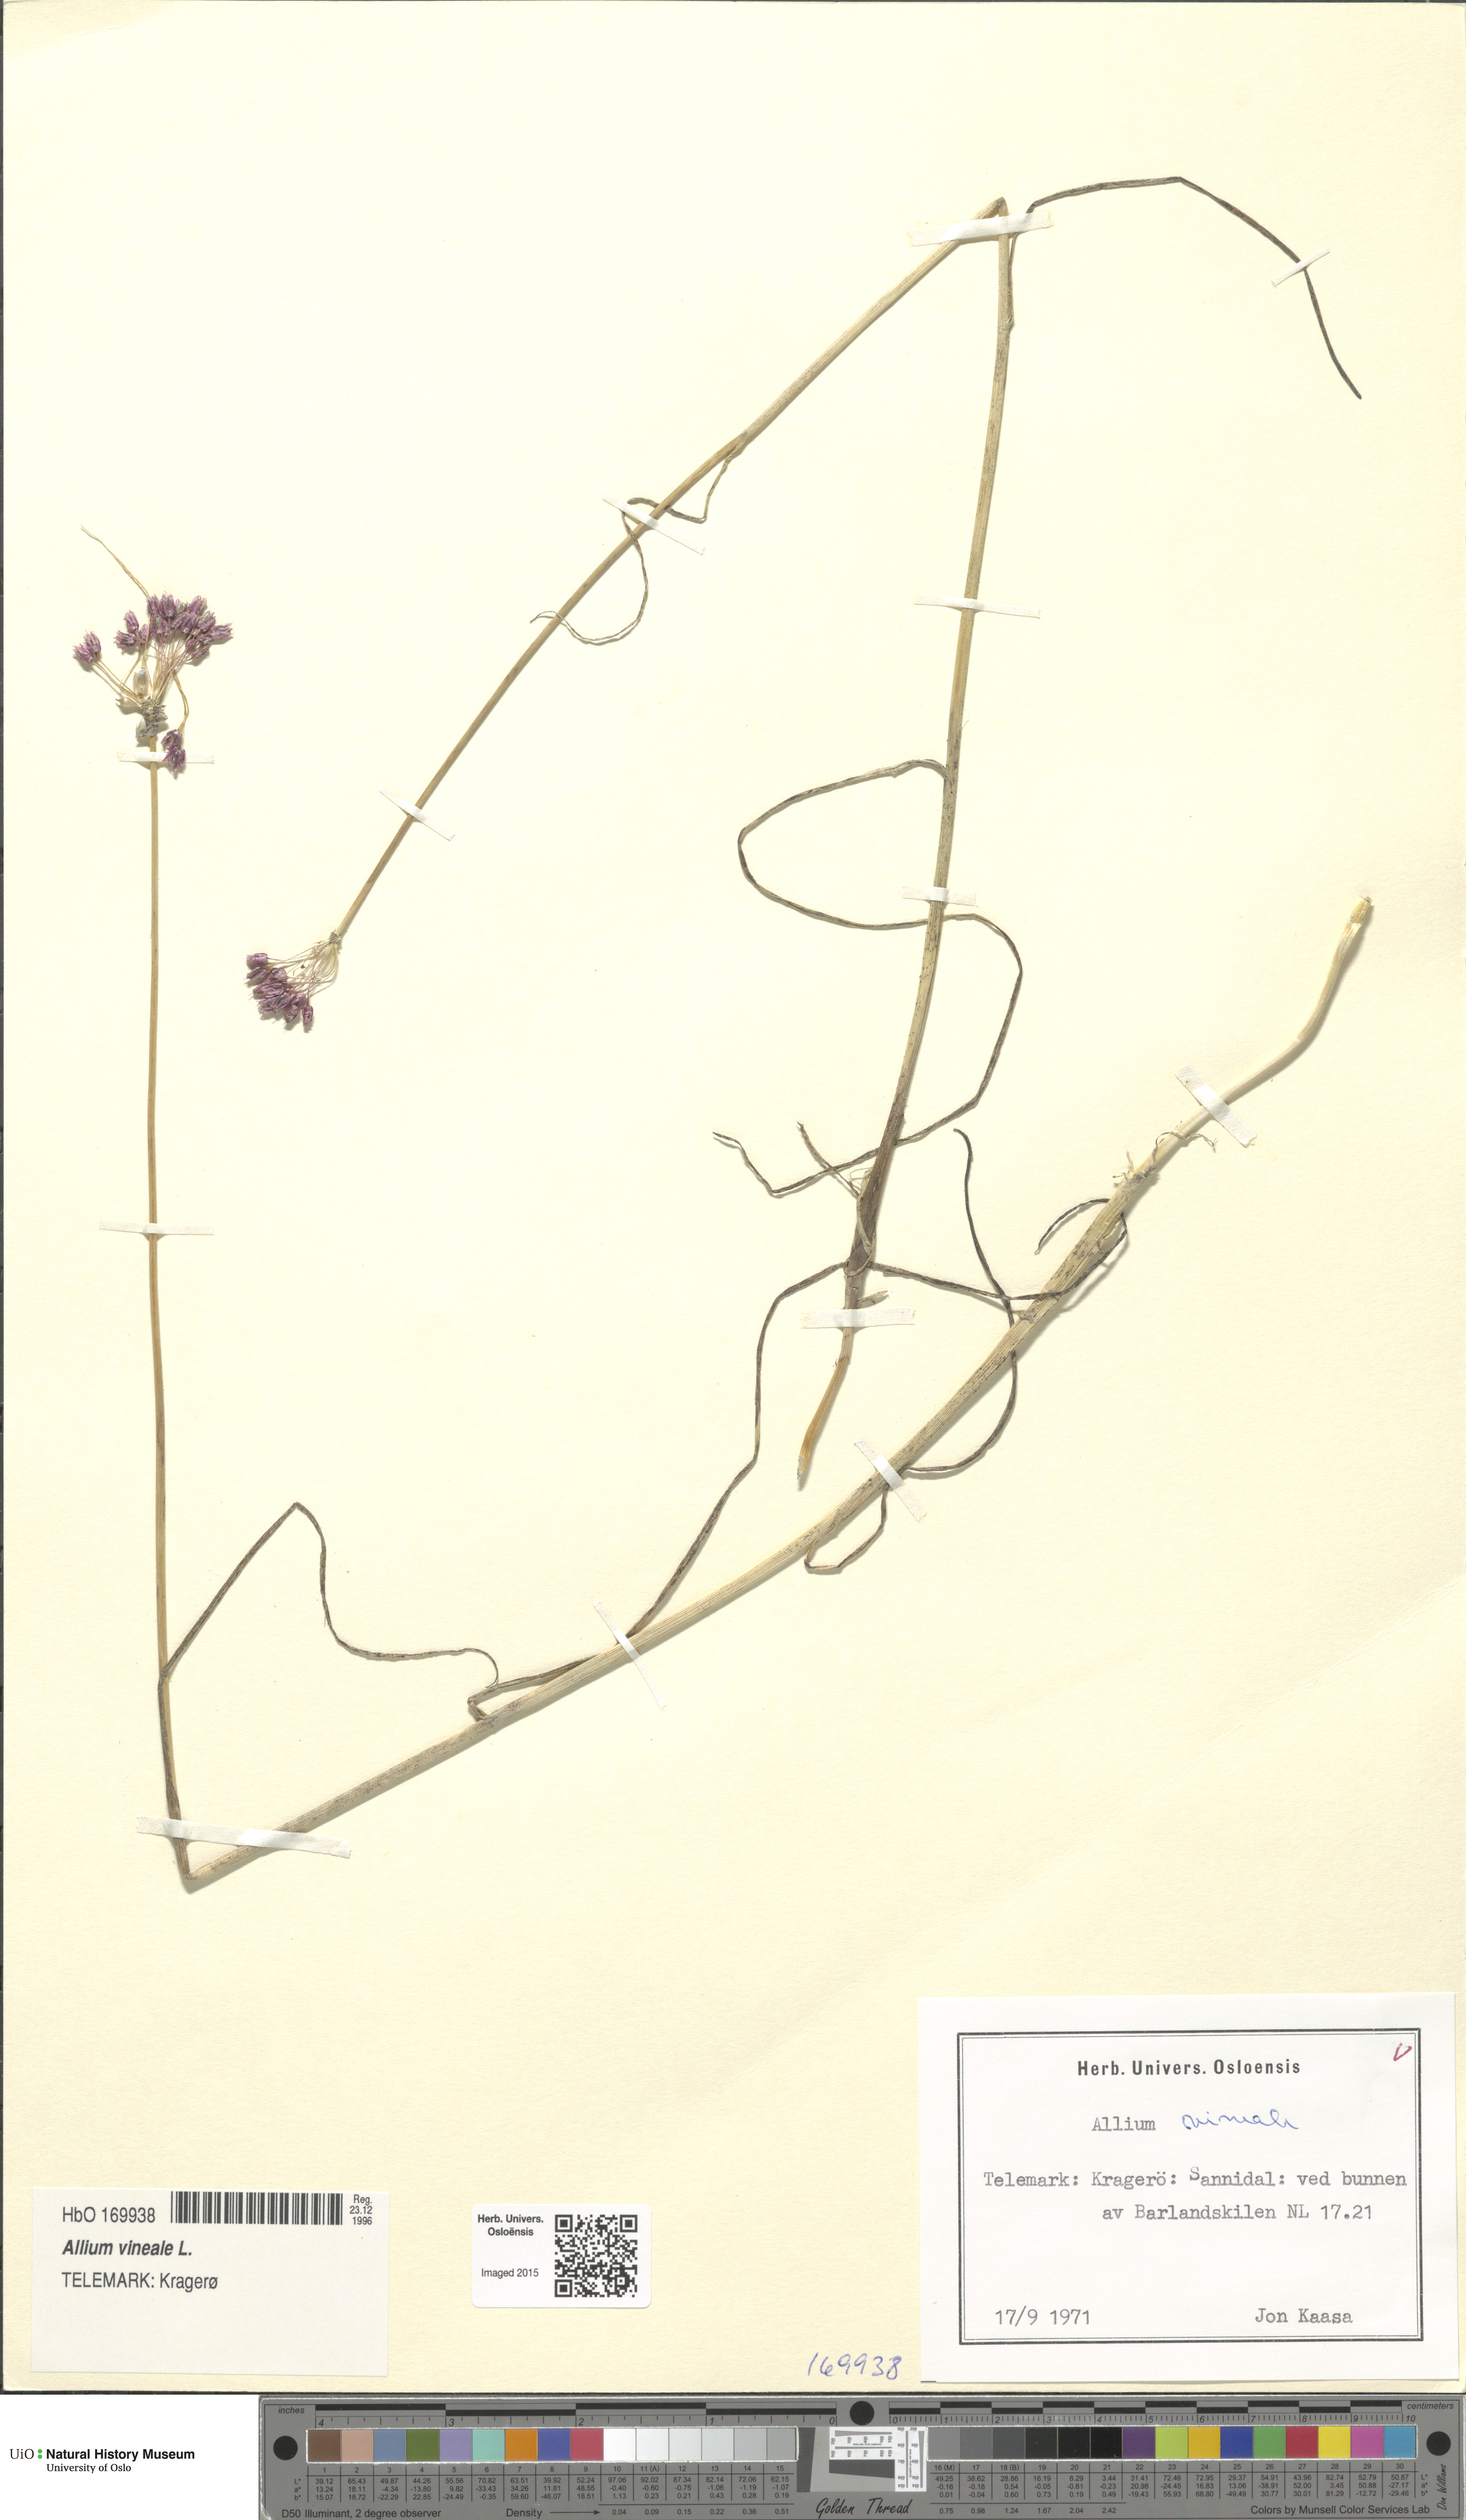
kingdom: Plantae
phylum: Tracheophyta
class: Liliopsida
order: Asparagales
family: Amaryllidaceae
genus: Allium
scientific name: Allium vineale
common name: Crow garlic
